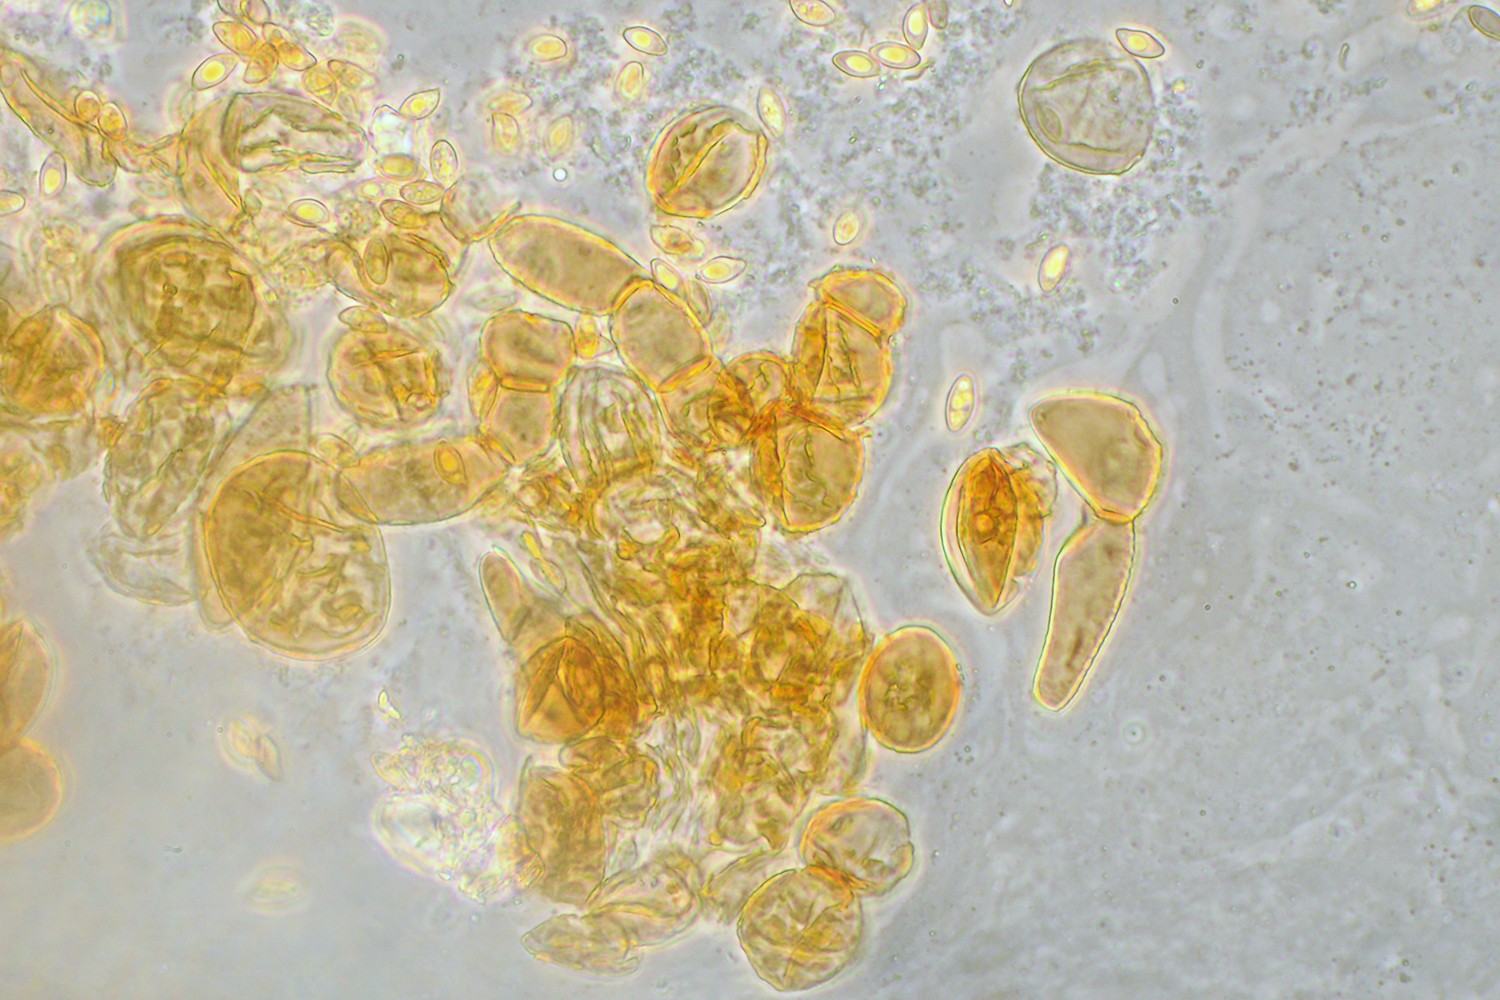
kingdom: Fungi
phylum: Basidiomycota
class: Agaricomycetes
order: Agaricales
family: Tubariaceae
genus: Flammulaster
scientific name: Flammulaster granulosus
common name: gulbrun grynskælhat
